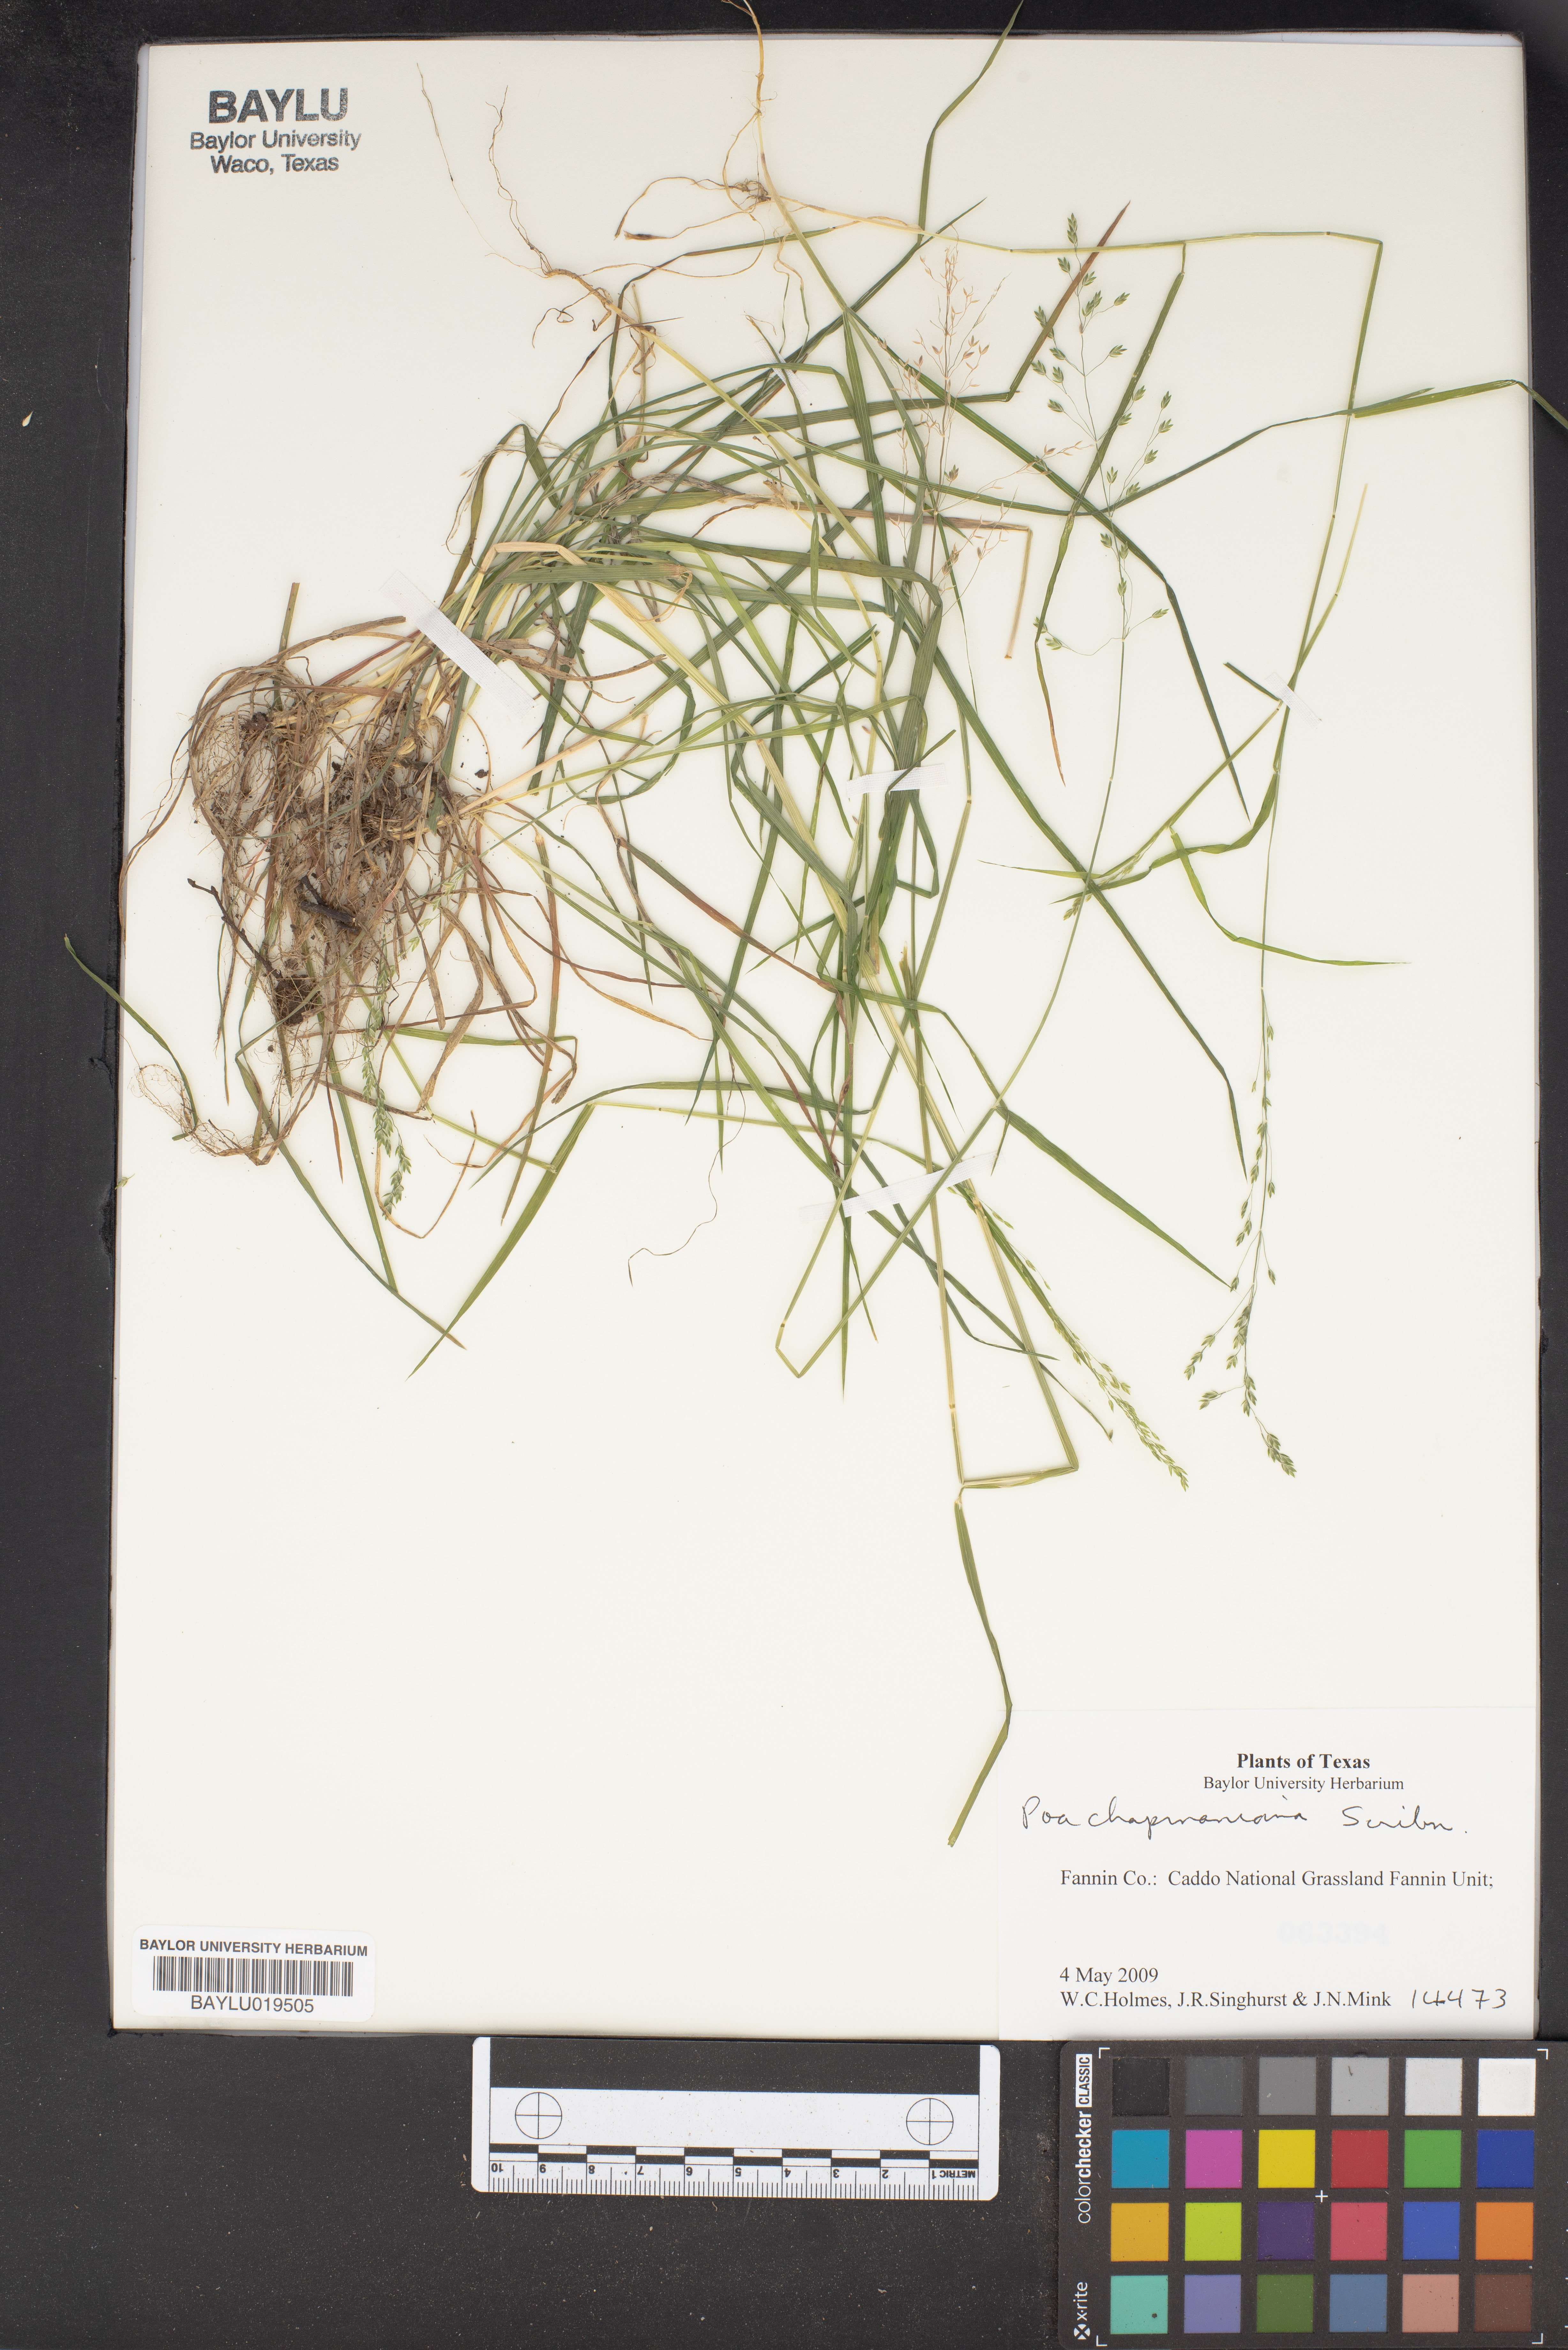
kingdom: Plantae
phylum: Tracheophyta
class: Liliopsida
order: Poales
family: Poaceae
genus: Poa
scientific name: Poa chapmaniana
